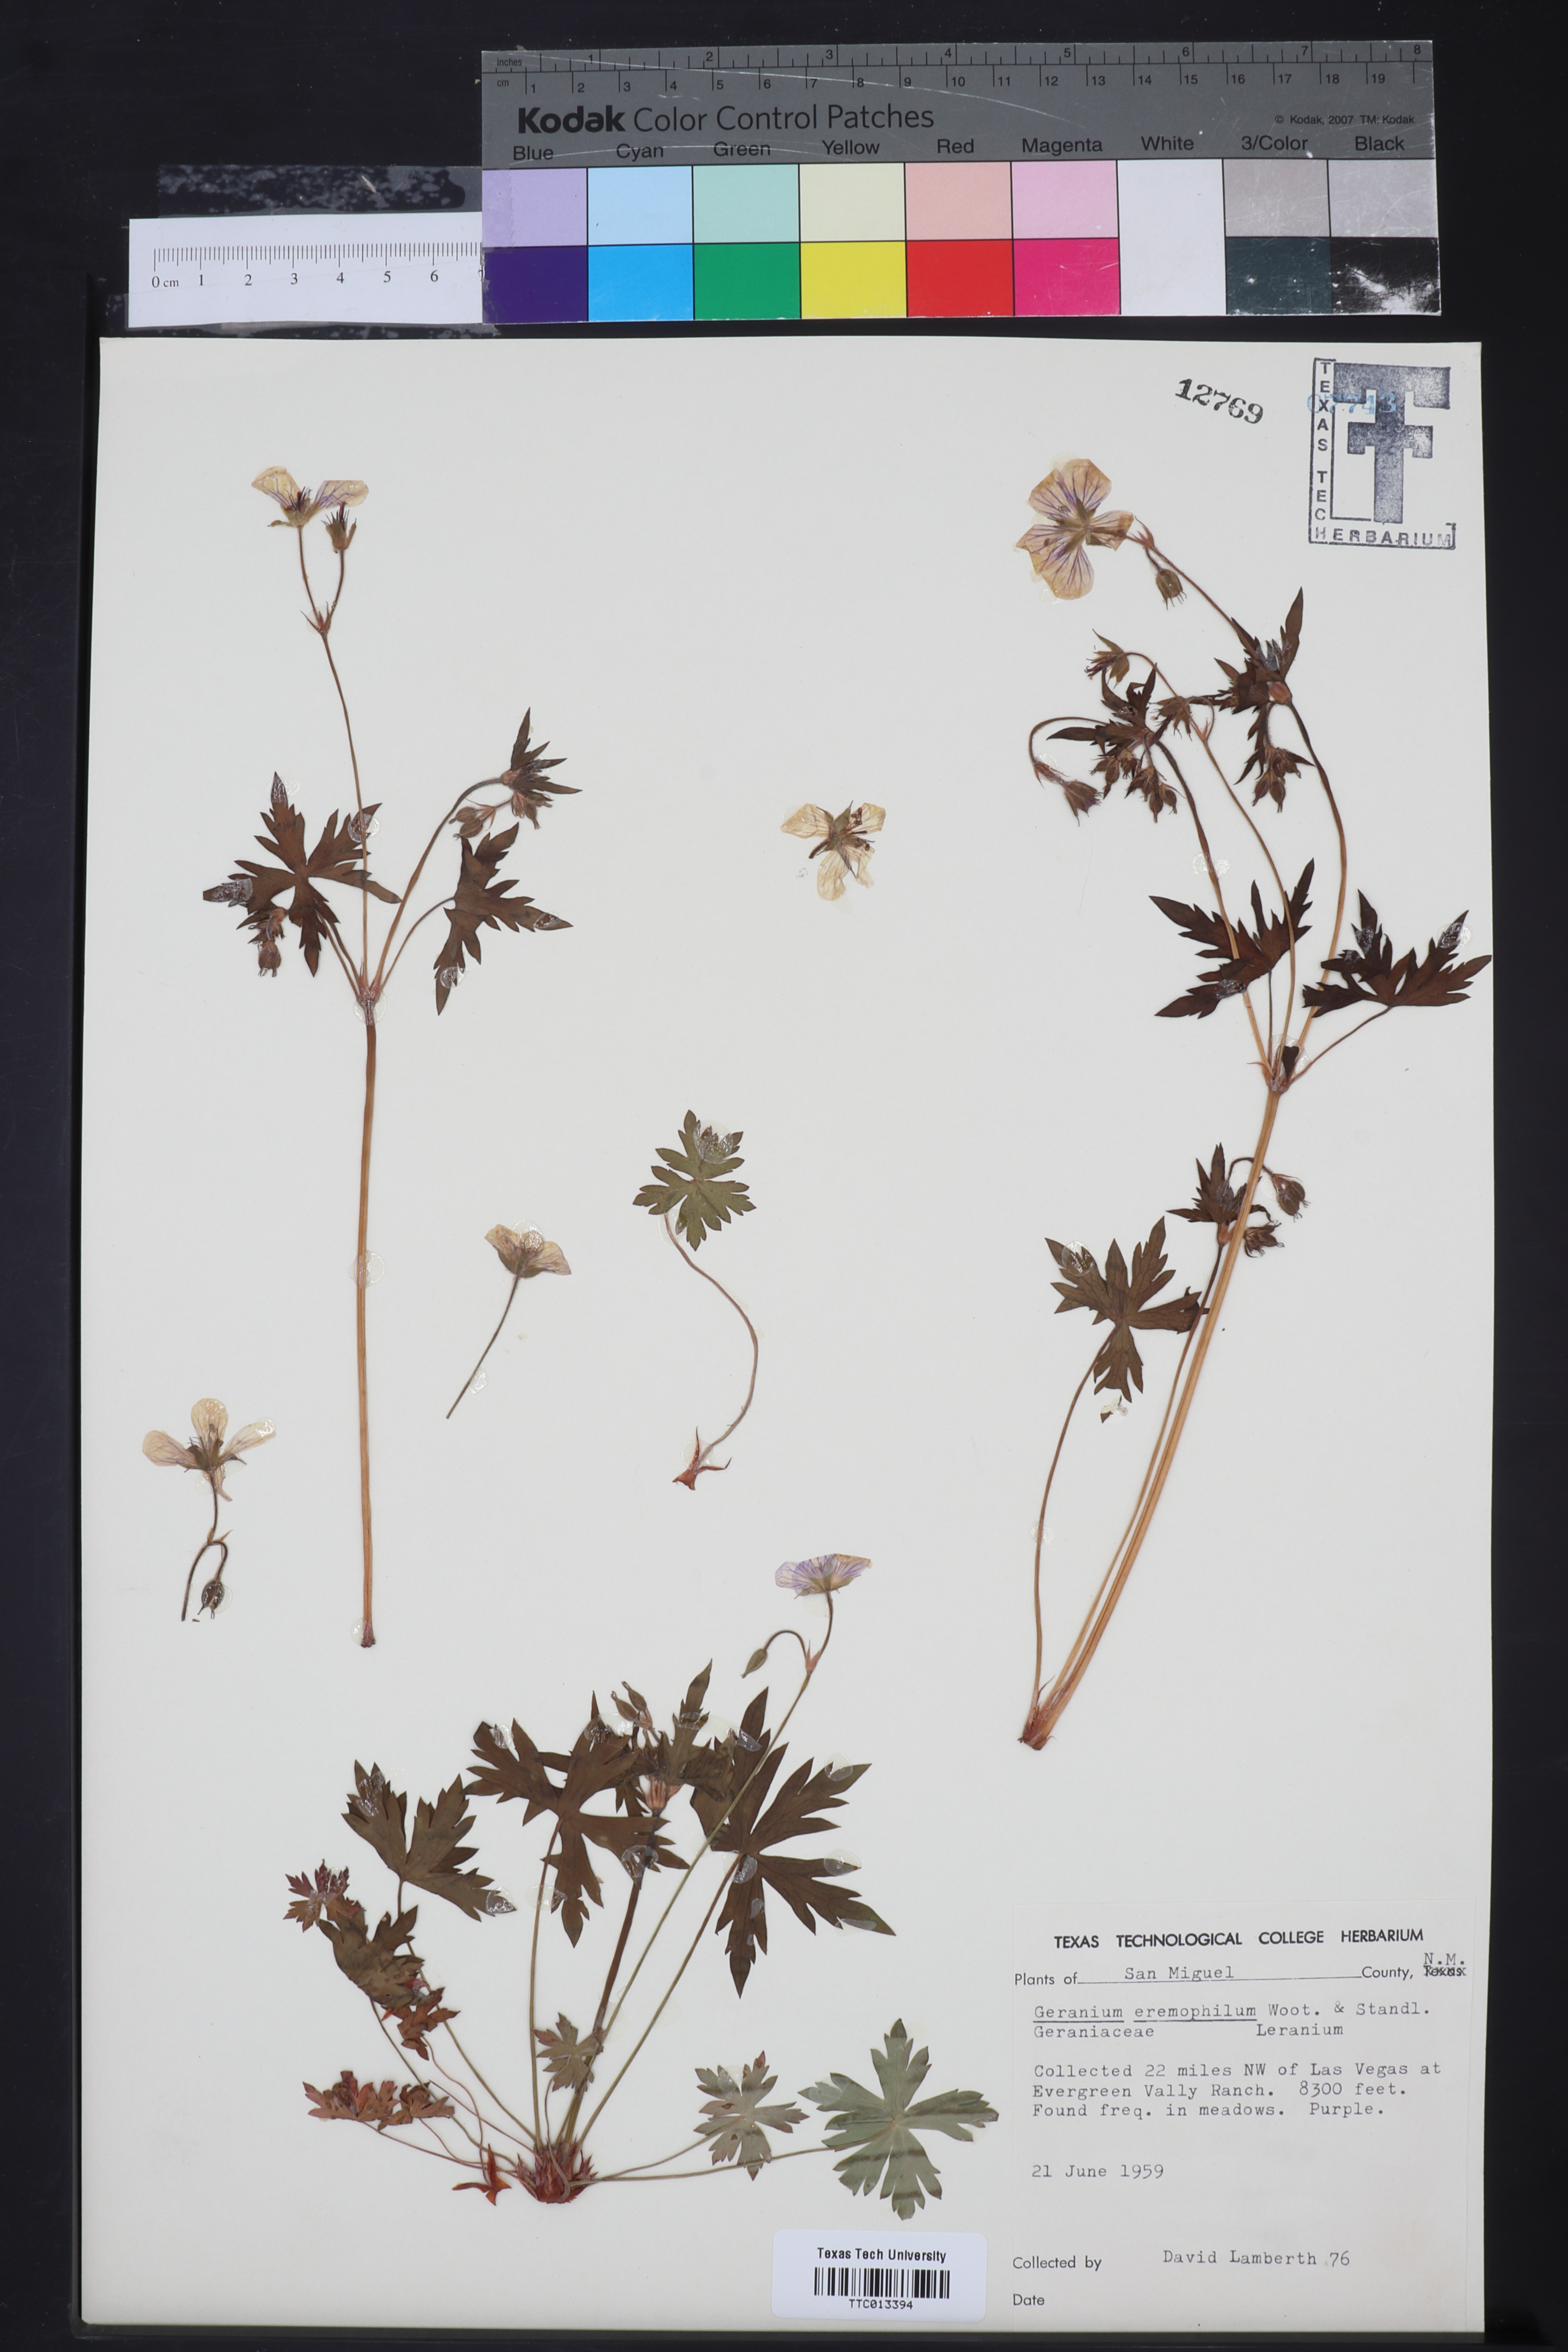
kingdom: Plantae
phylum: Tracheophyta
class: Magnoliopsida
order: Geraniales
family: Geraniaceae
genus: Geranium
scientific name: Geranium caespitosum
